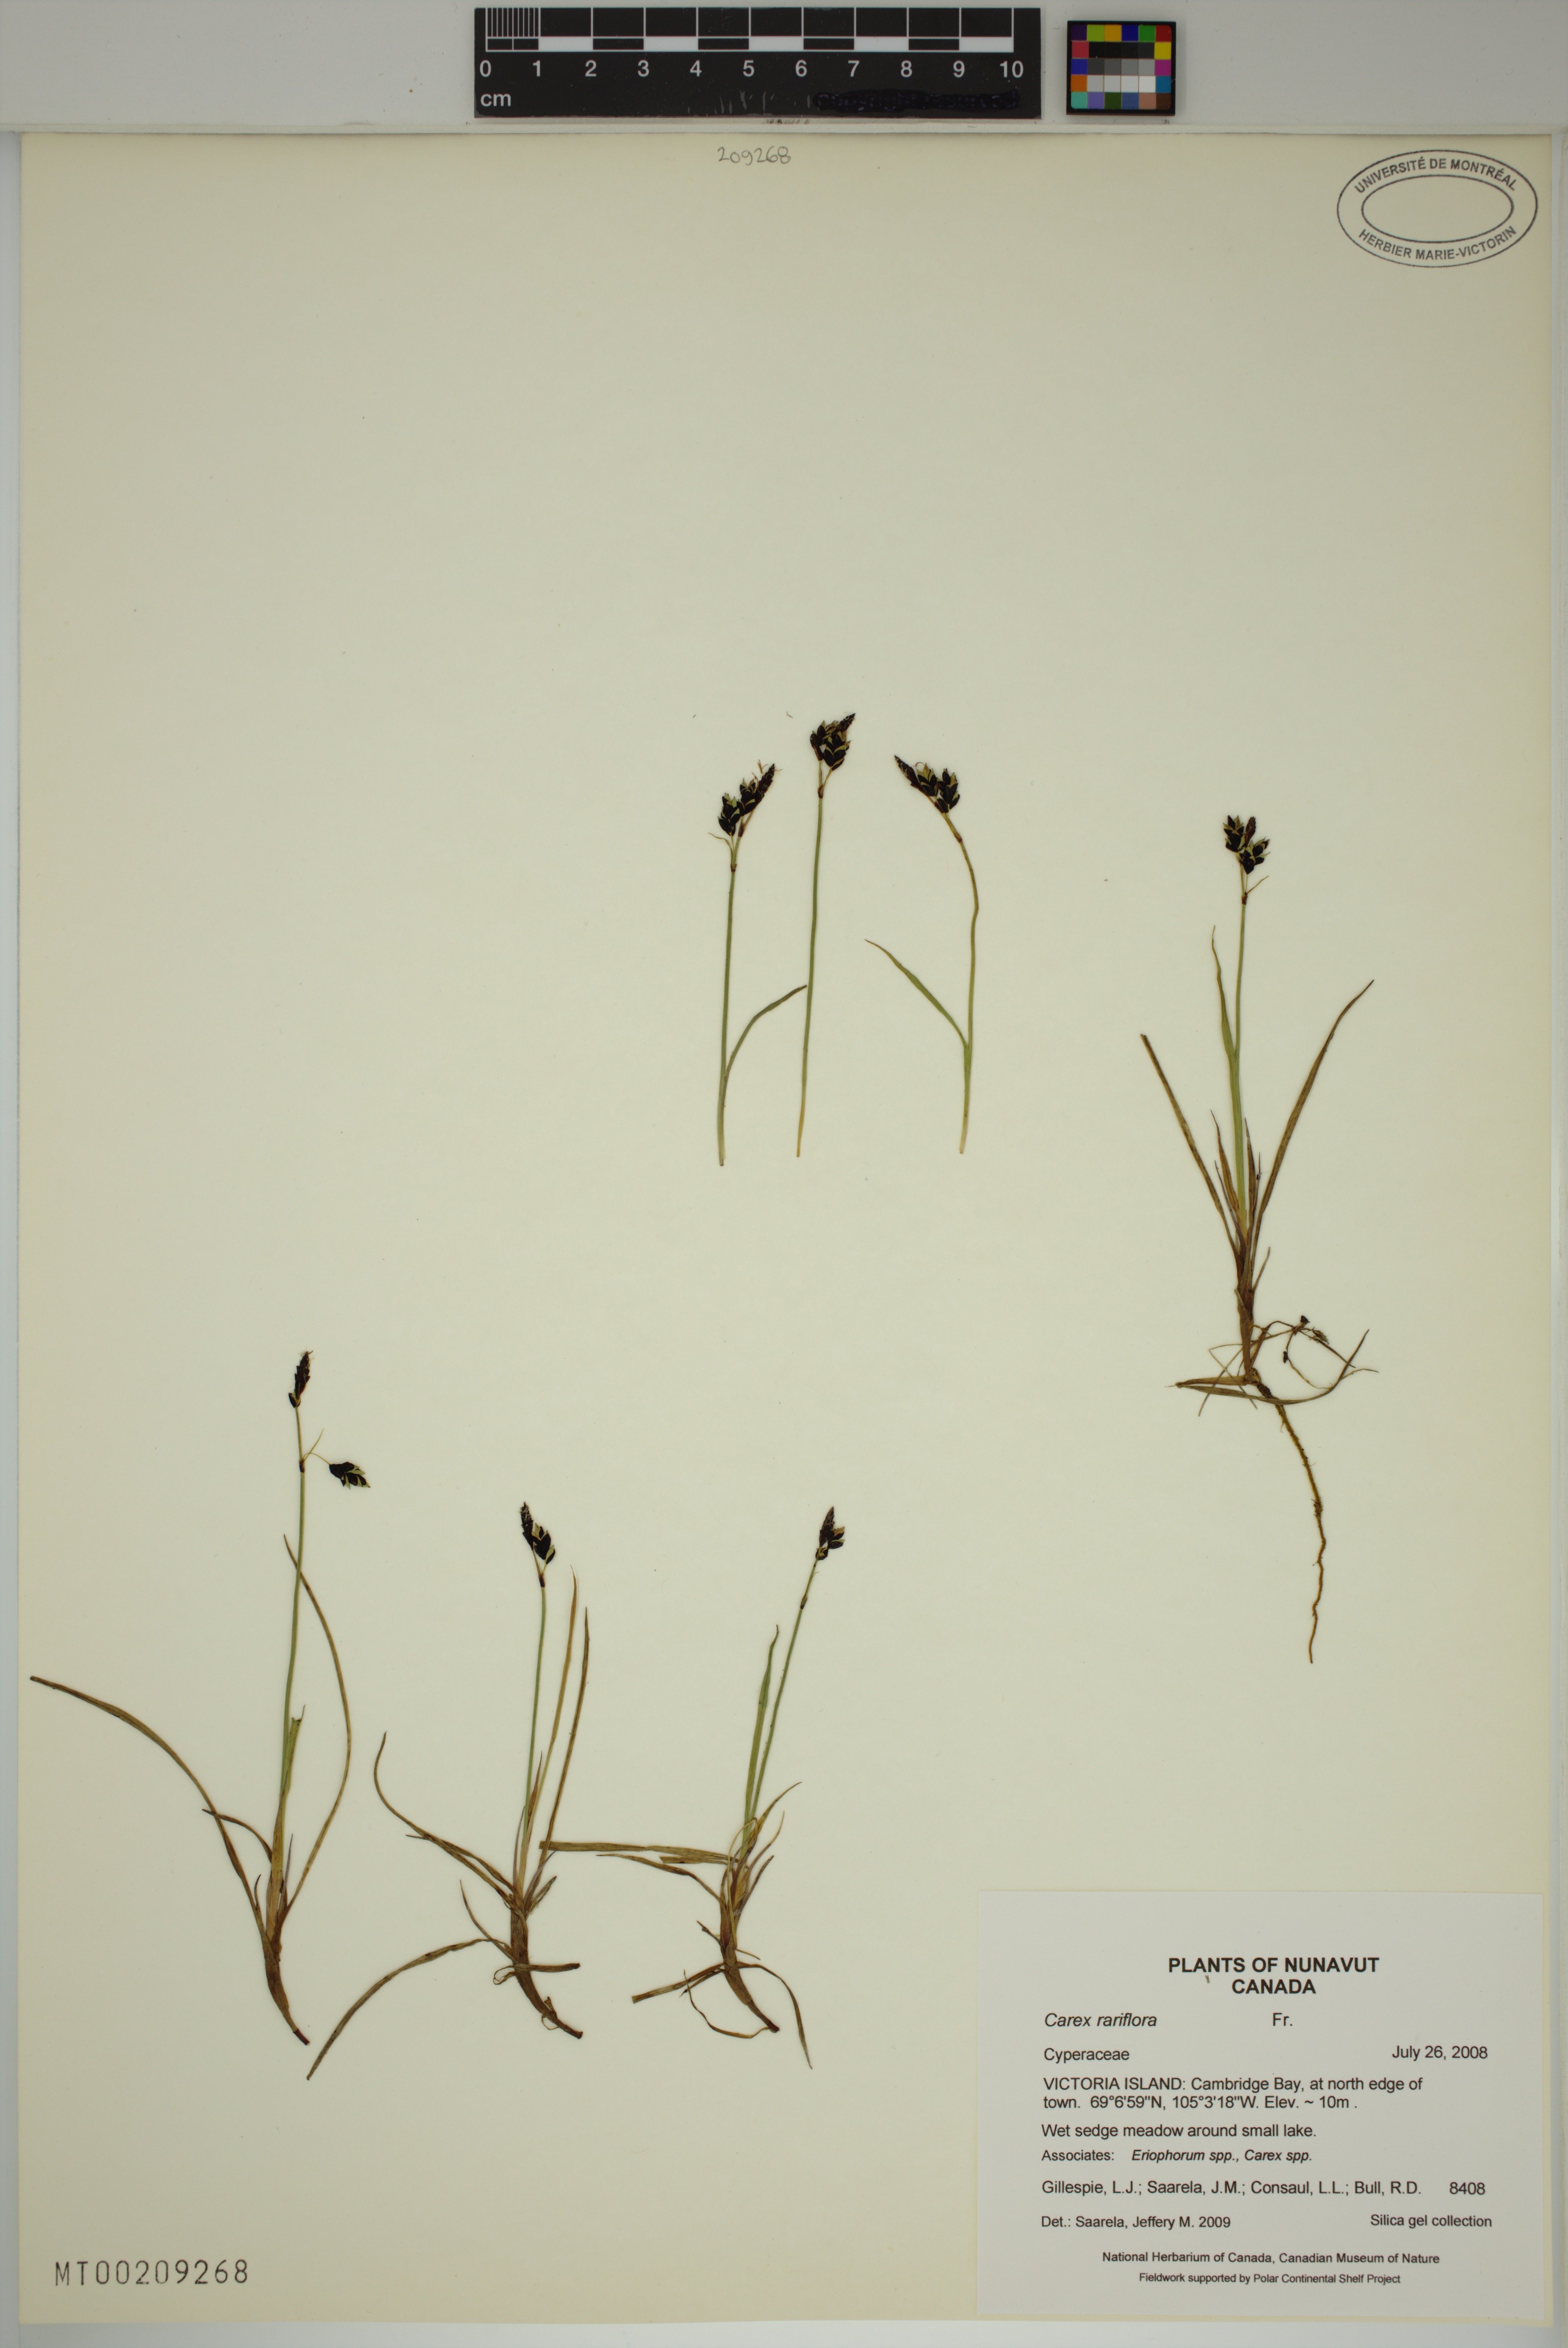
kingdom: Plantae
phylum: Tracheophyta
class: Liliopsida
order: Poales
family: Cyperaceae
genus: Carex
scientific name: Carex rariflora
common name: Loose-flowered alpine sedge
